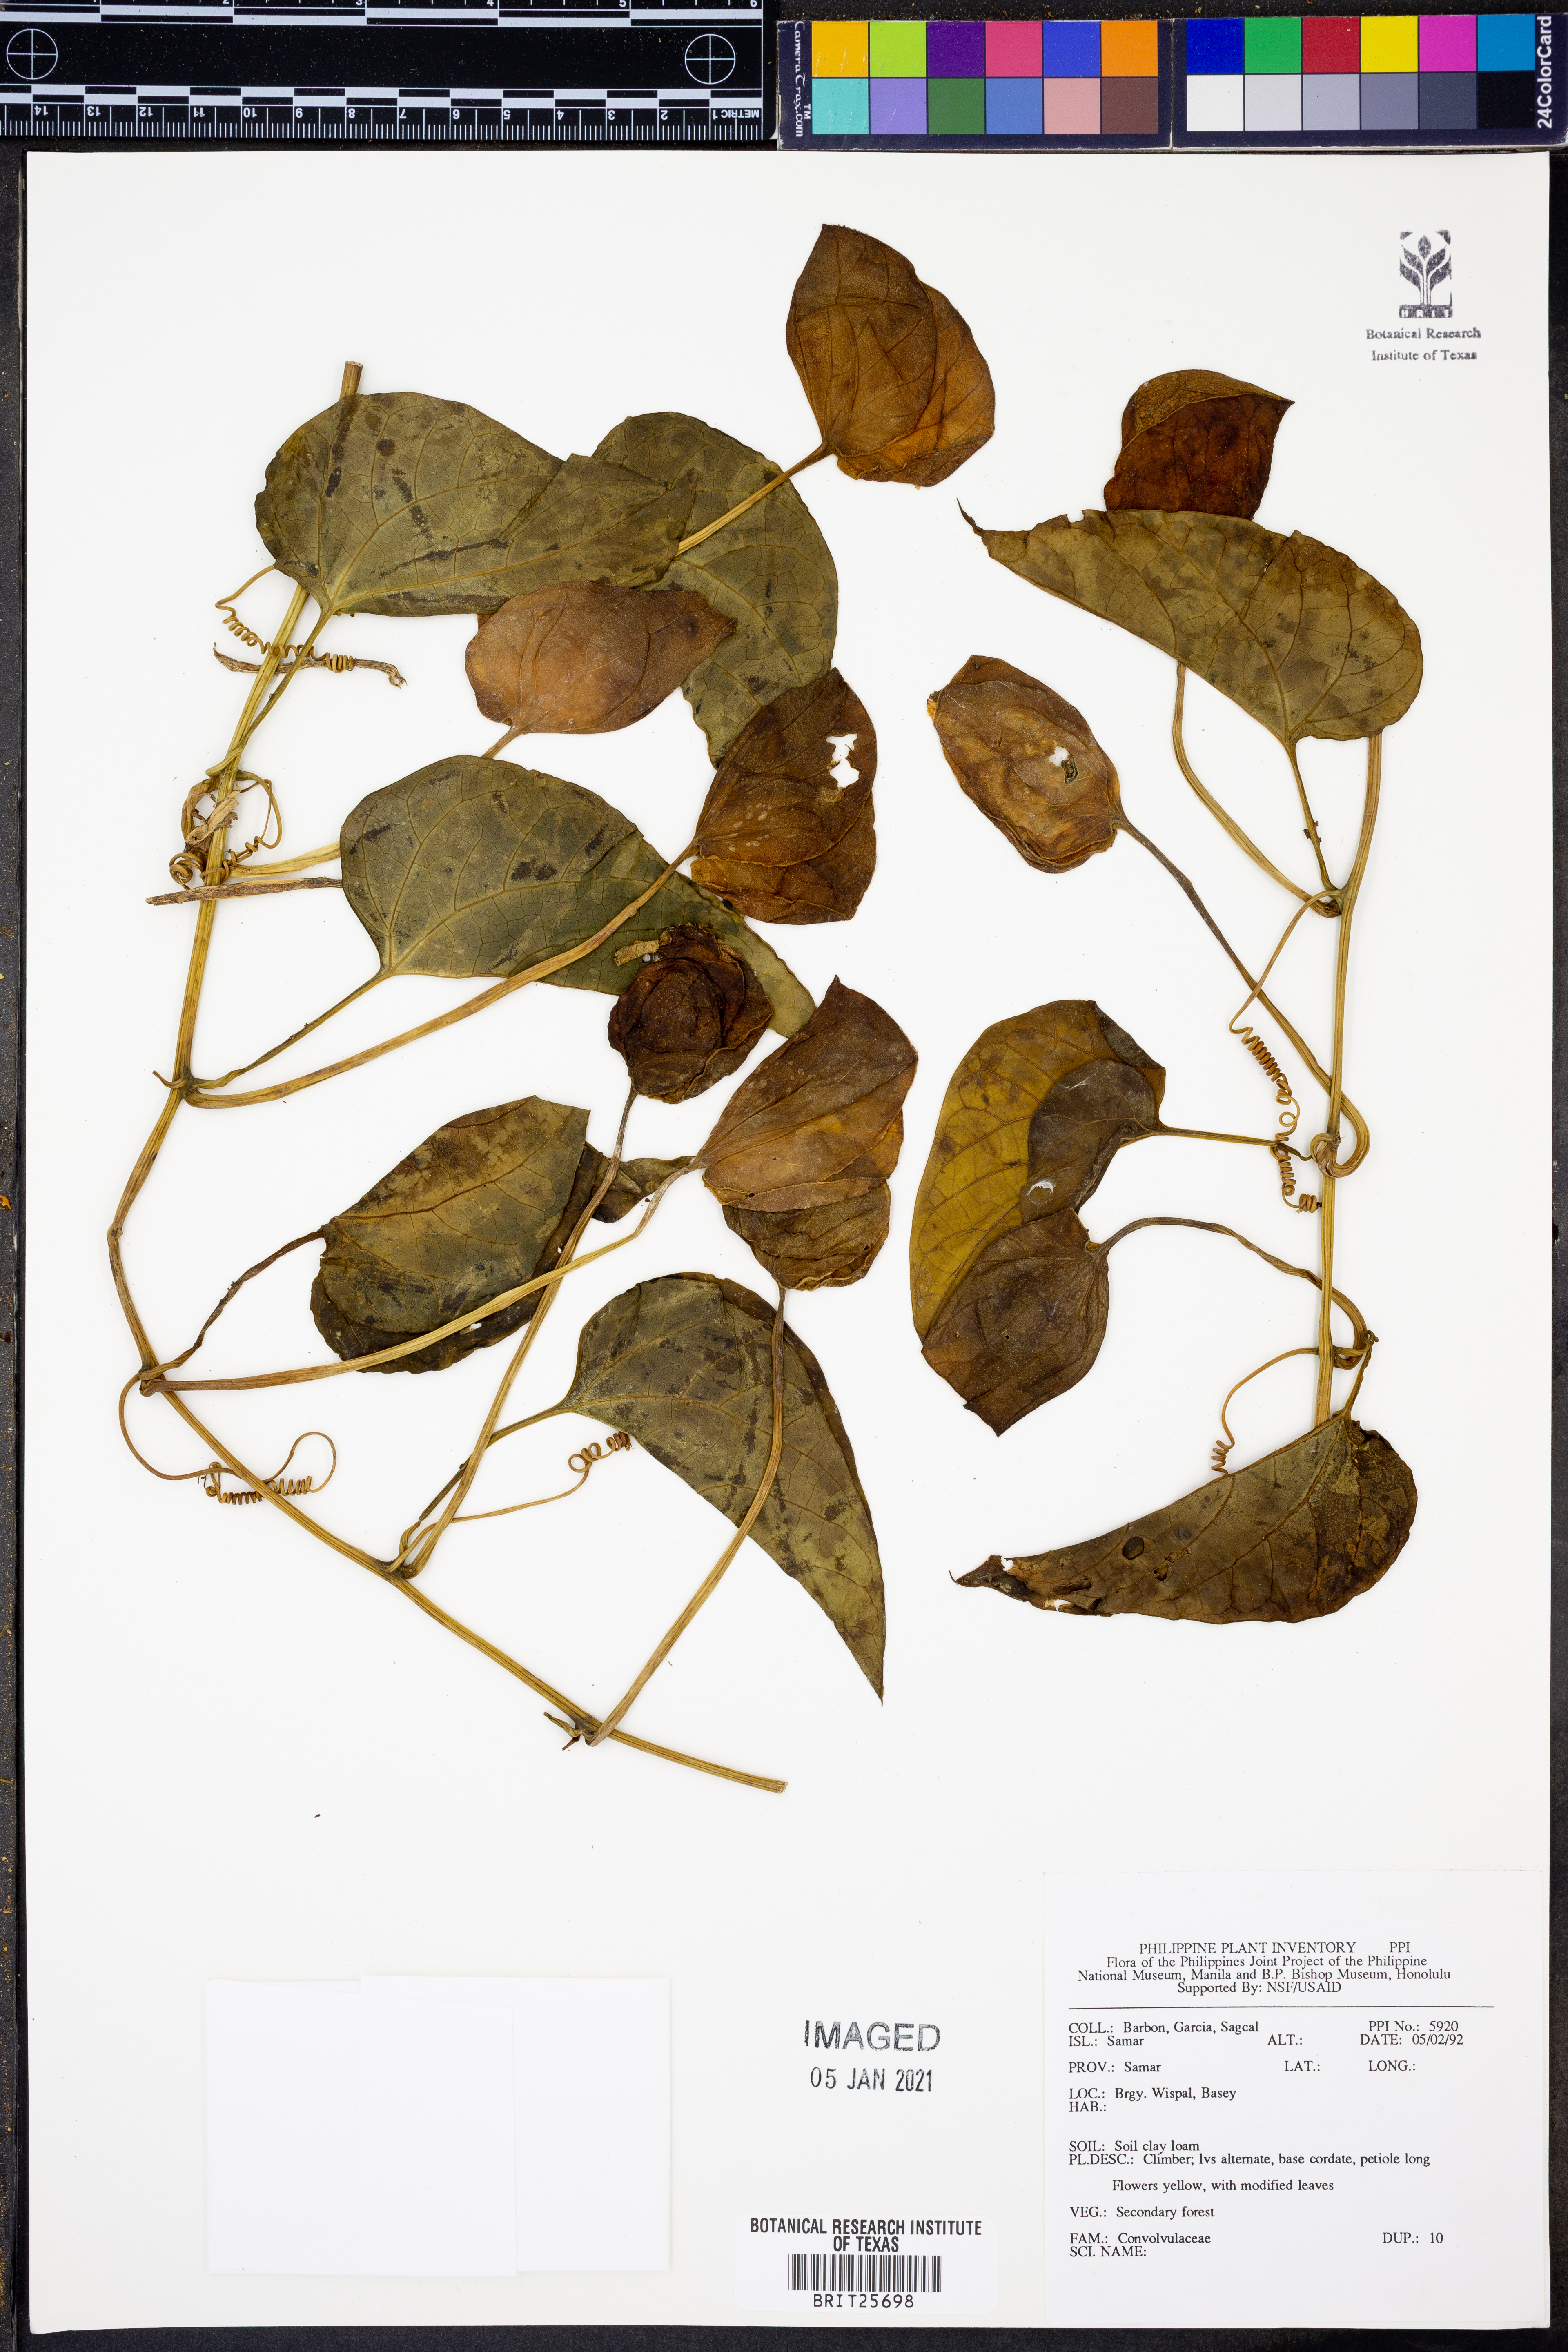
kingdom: Plantae
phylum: Tracheophyta
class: Magnoliopsida
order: Solanales
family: Convolvulaceae
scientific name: Convolvulaceae
